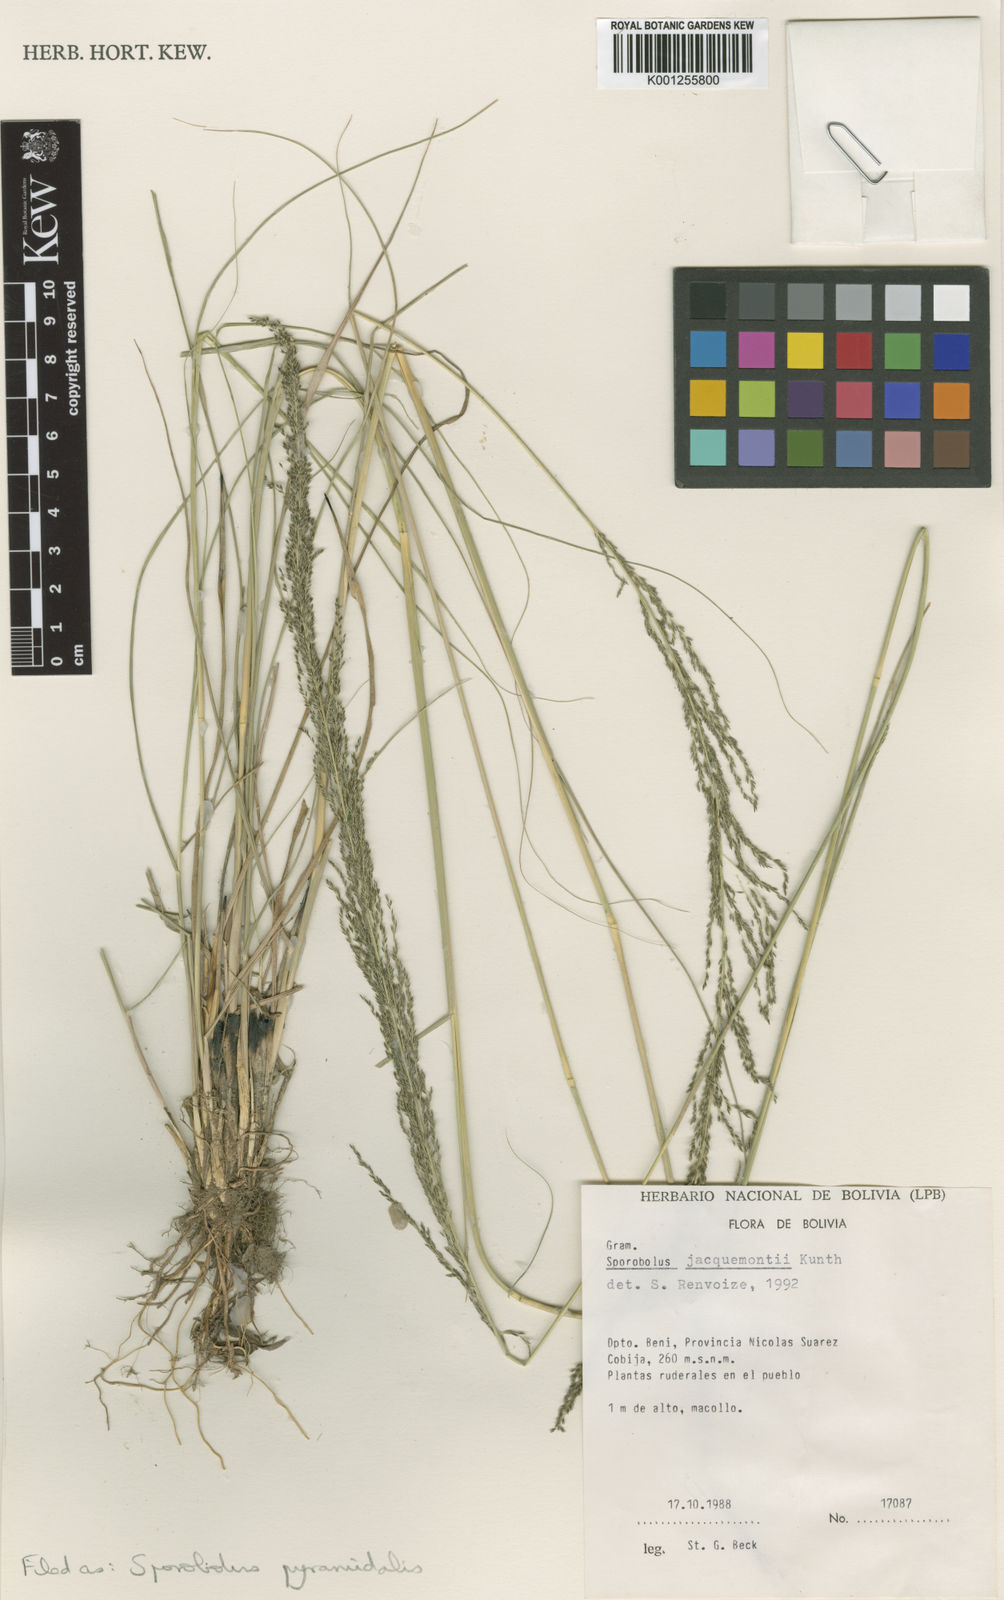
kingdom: Plantae
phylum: Tracheophyta
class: Liliopsida
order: Poales
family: Poaceae
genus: Sporobolus
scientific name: Sporobolus pyramidalis
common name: West indian dropseed
